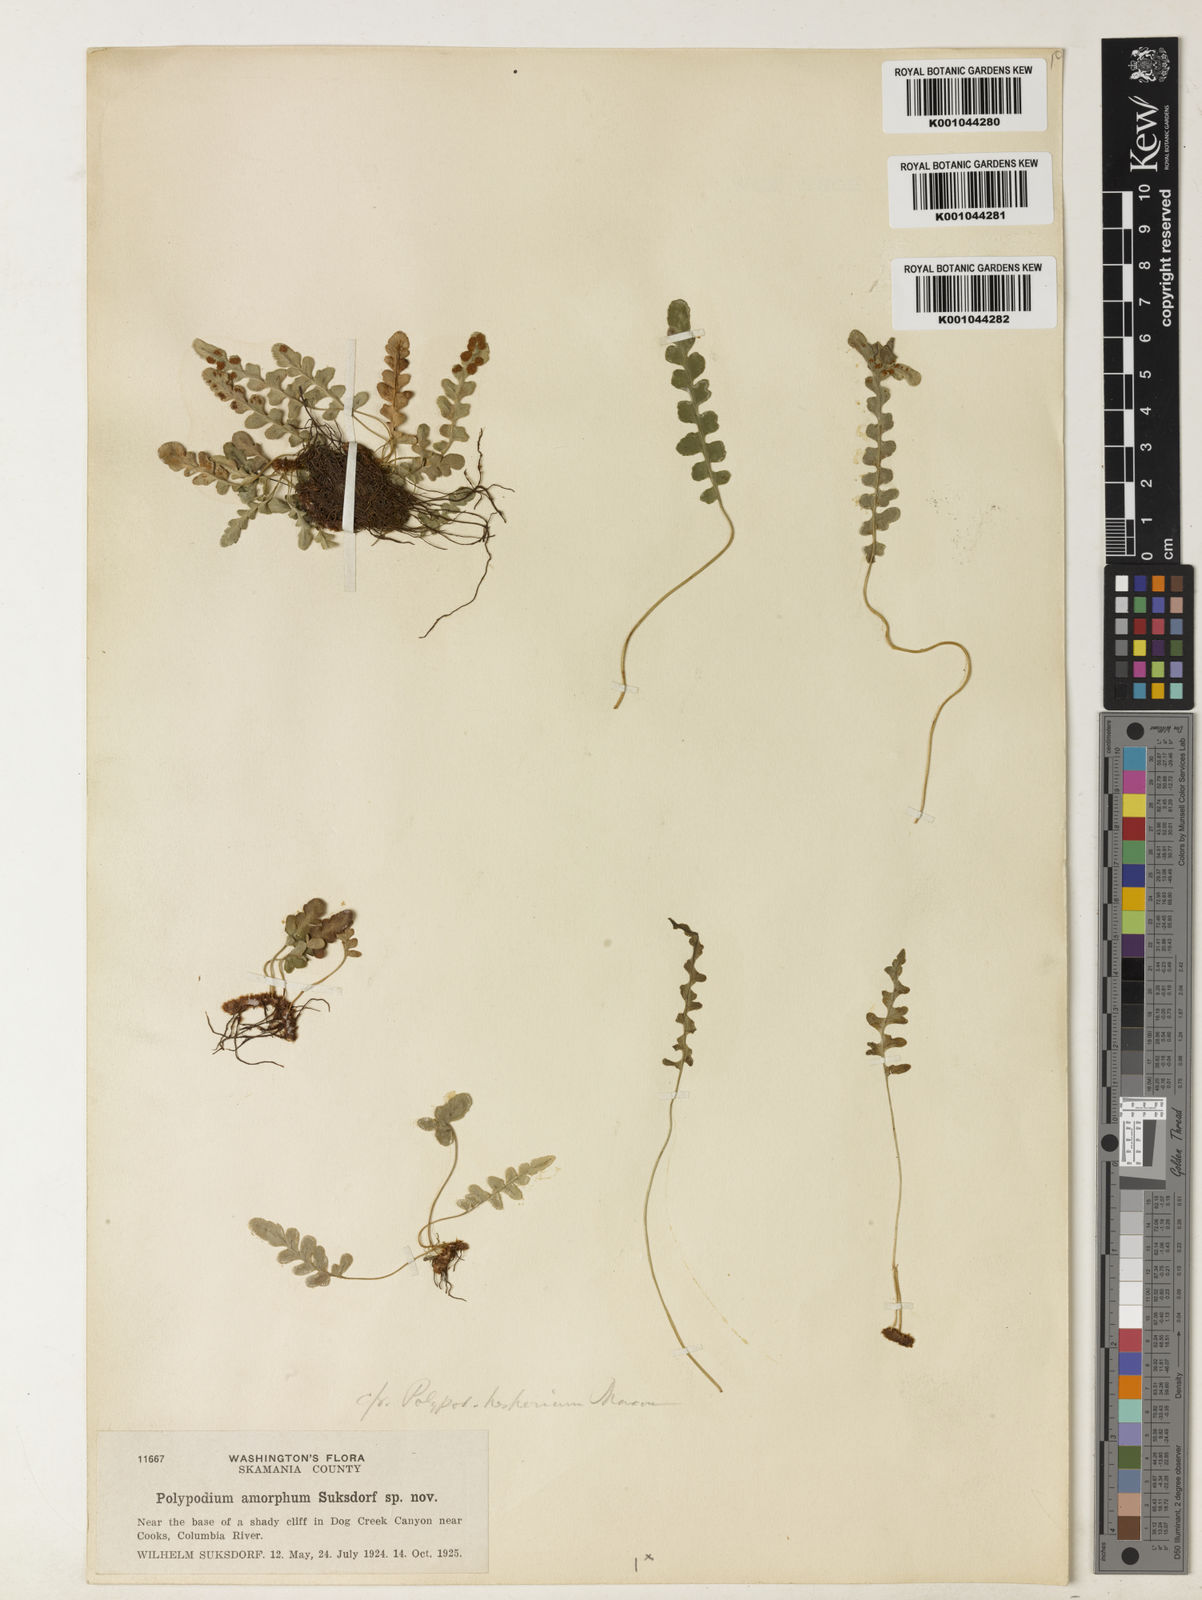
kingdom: Plantae
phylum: Tracheophyta
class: Polypodiopsida
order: Polypodiales
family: Polypodiaceae
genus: Polypodium
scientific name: Polypodium amorphum
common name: Pacific polypody
